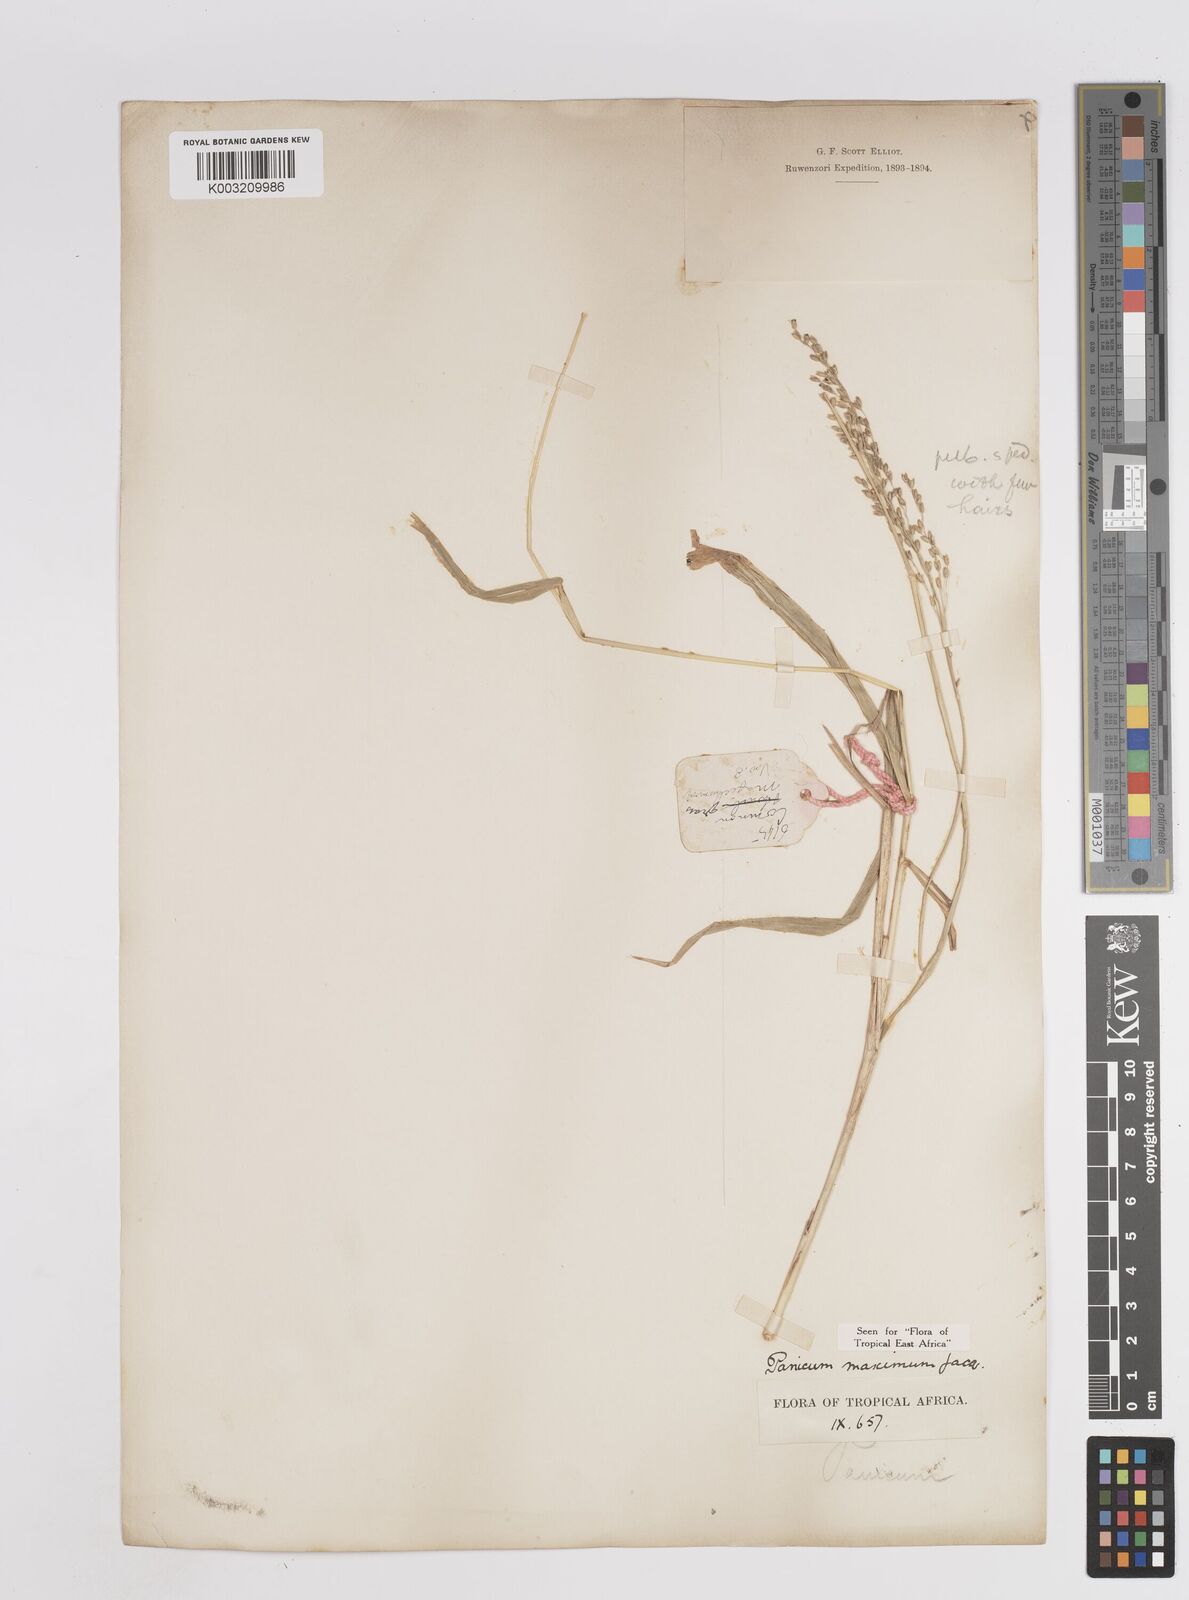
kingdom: Plantae
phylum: Tracheophyta
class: Liliopsida
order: Poales
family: Poaceae
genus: Megathyrsus
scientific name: Megathyrsus maximus
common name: Guineagrass
